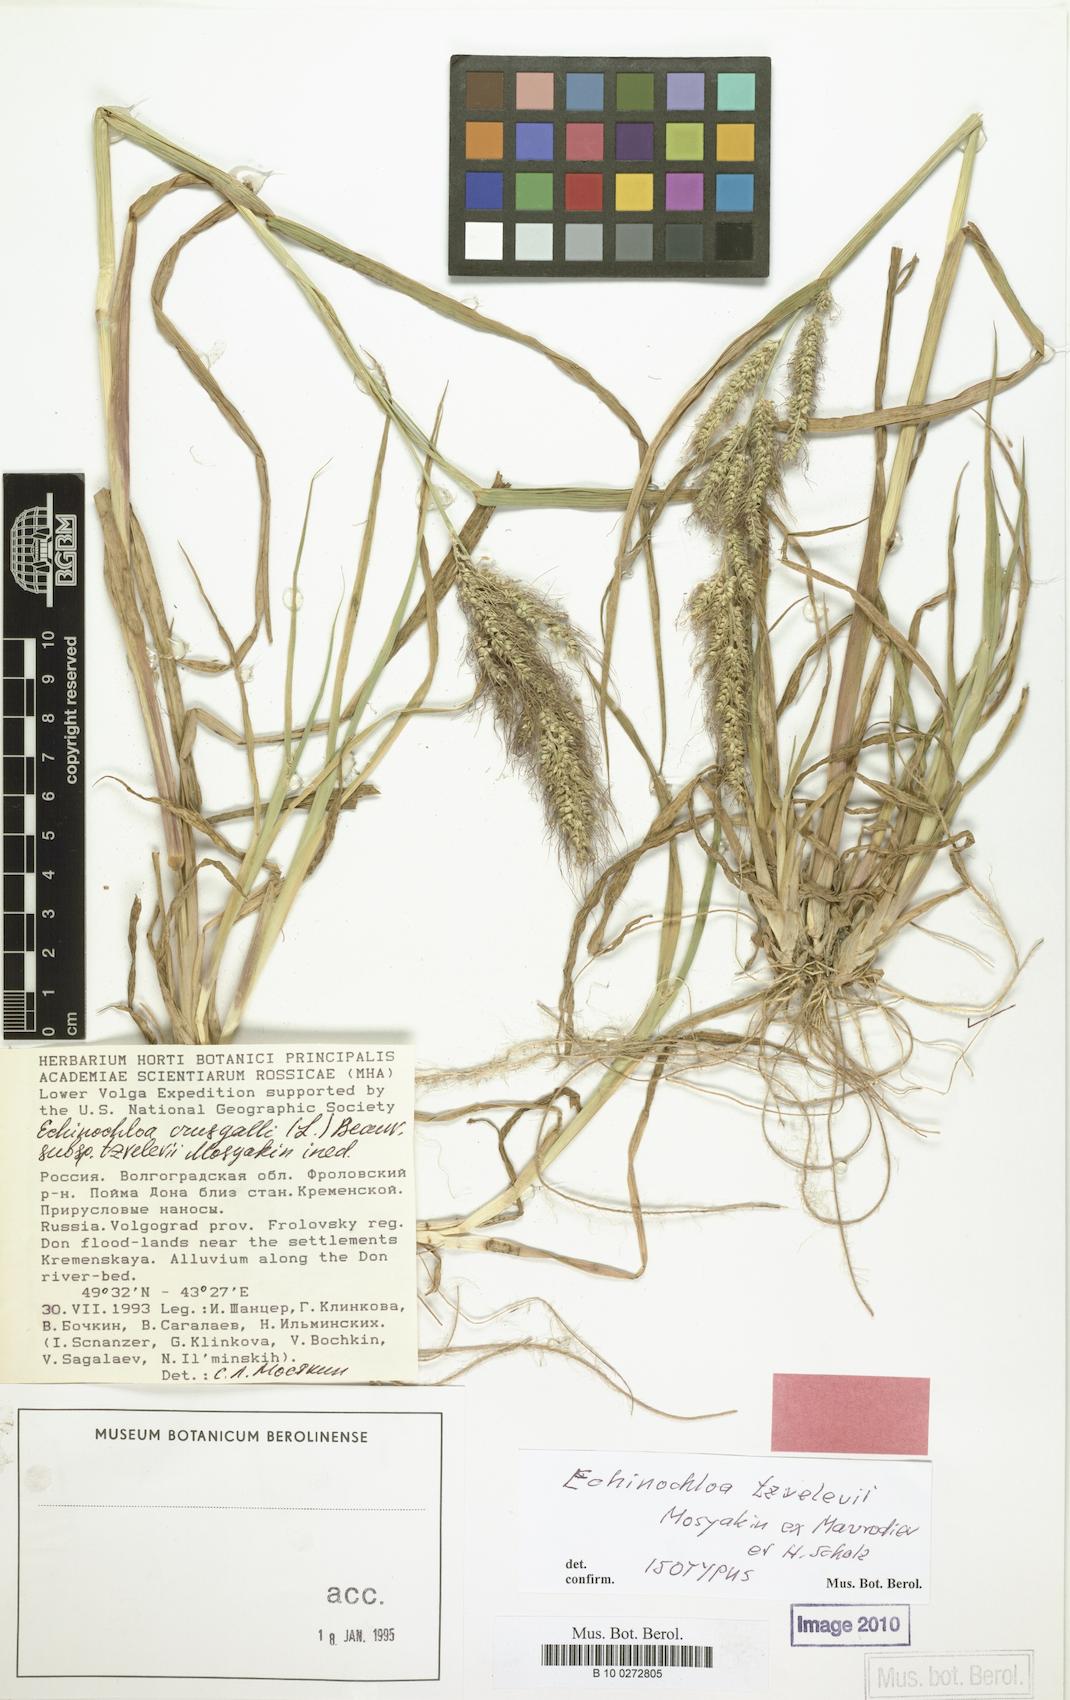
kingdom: Plantae
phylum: Tracheophyta
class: Liliopsida
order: Poales
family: Poaceae
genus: Echinochloa
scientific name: Echinochloa crus-galli
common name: Cockspur
